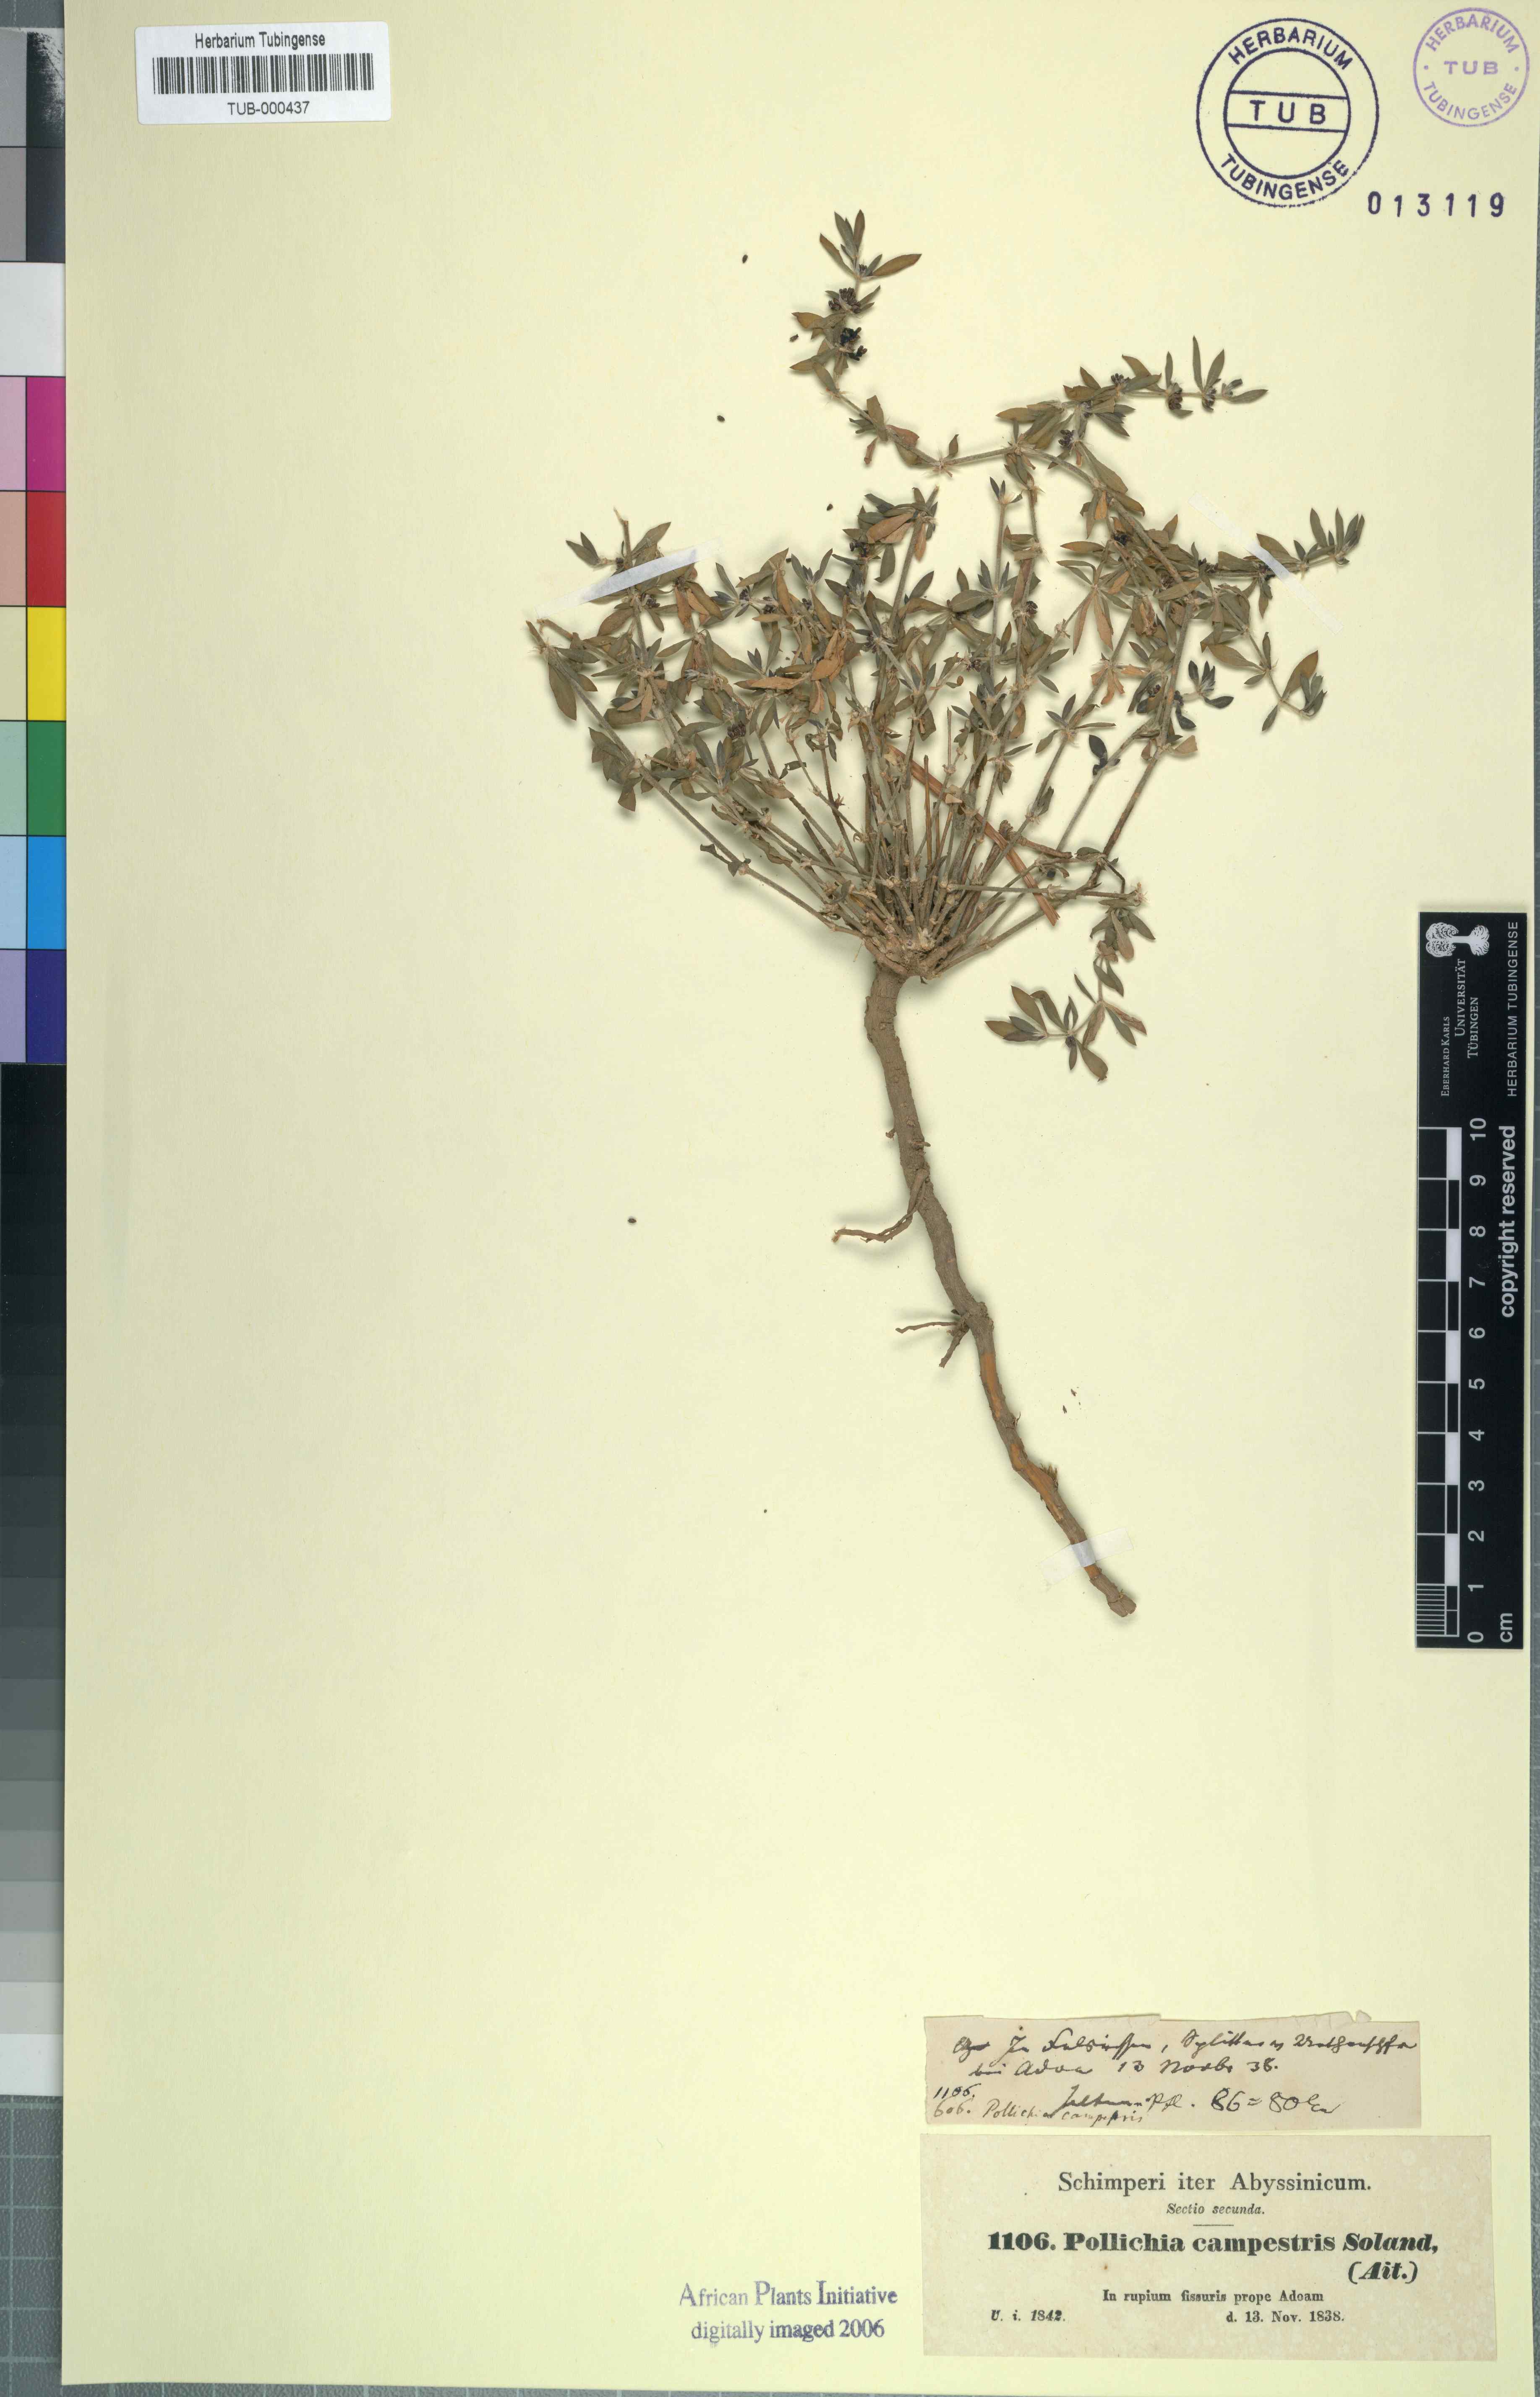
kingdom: Plantae
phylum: Tracheophyta
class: Magnoliopsida
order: Caryophyllales
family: Caryophyllaceae
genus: Pollichia
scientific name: Pollichia campestris
